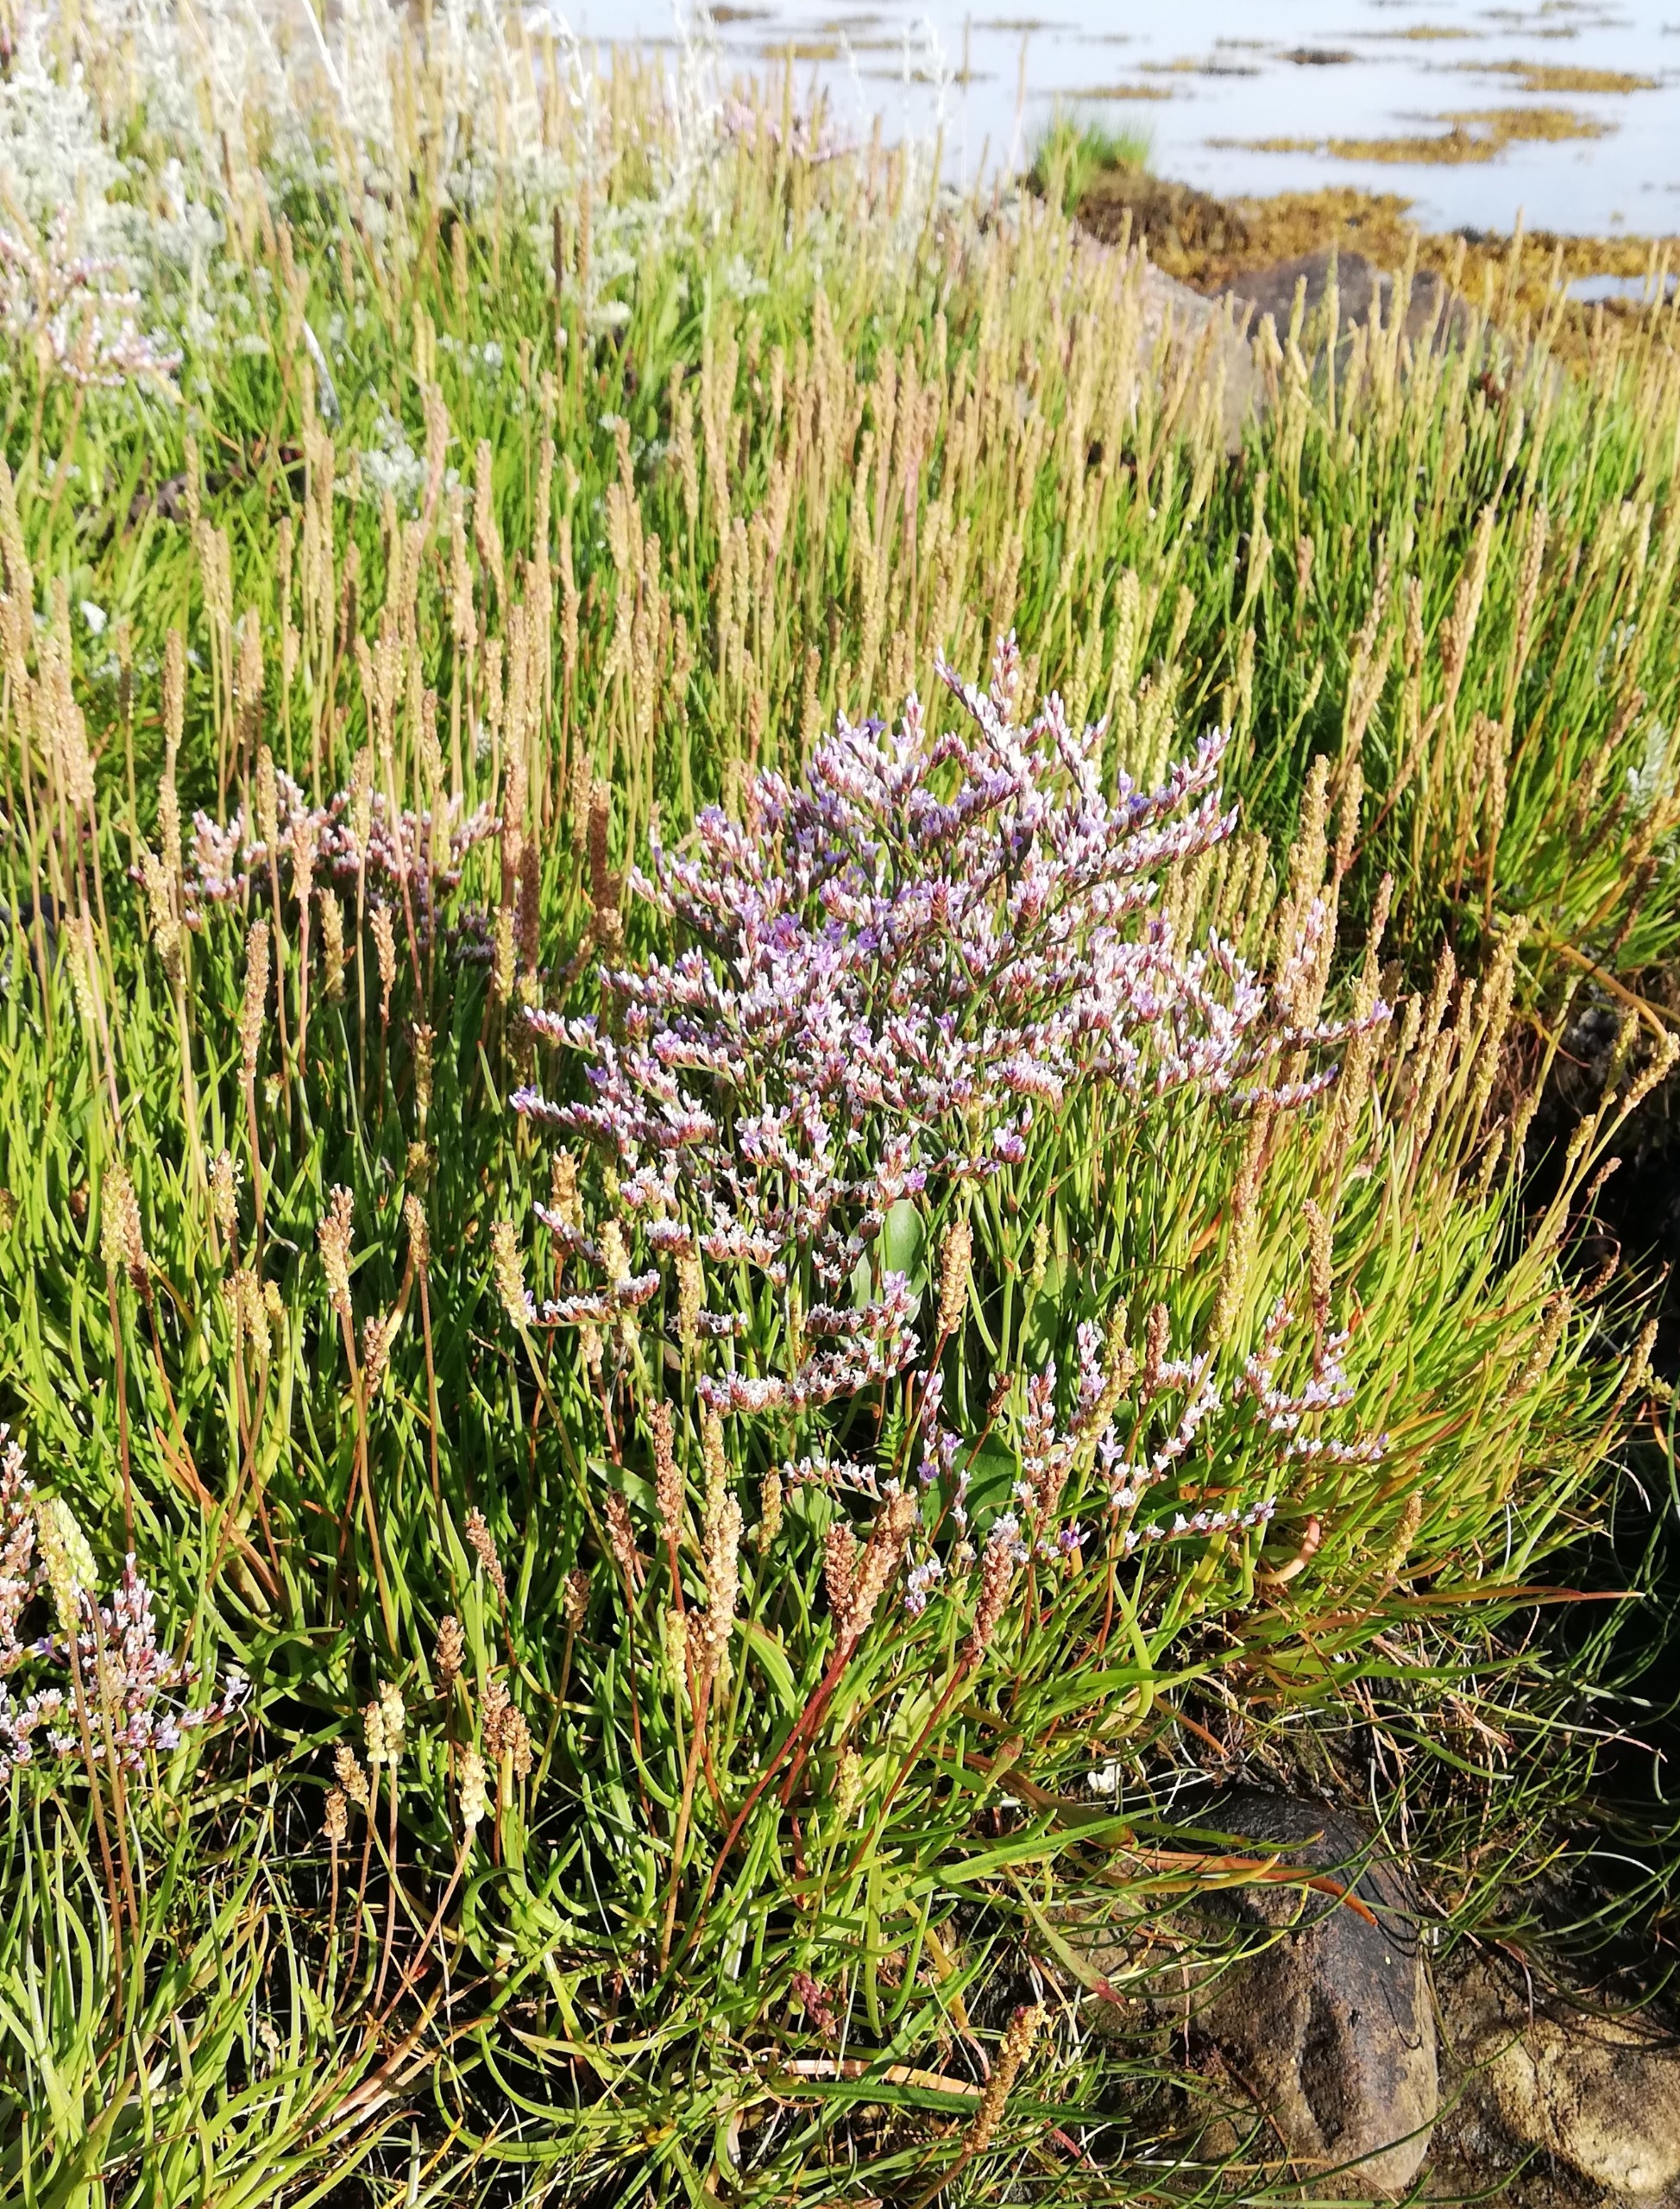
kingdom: Plantae
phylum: Tracheophyta
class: Magnoliopsida
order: Caryophyllales
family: Plumbaginaceae
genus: Limonium
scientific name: Limonium
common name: Lav hindebæger × tætblomstret hindebæger
